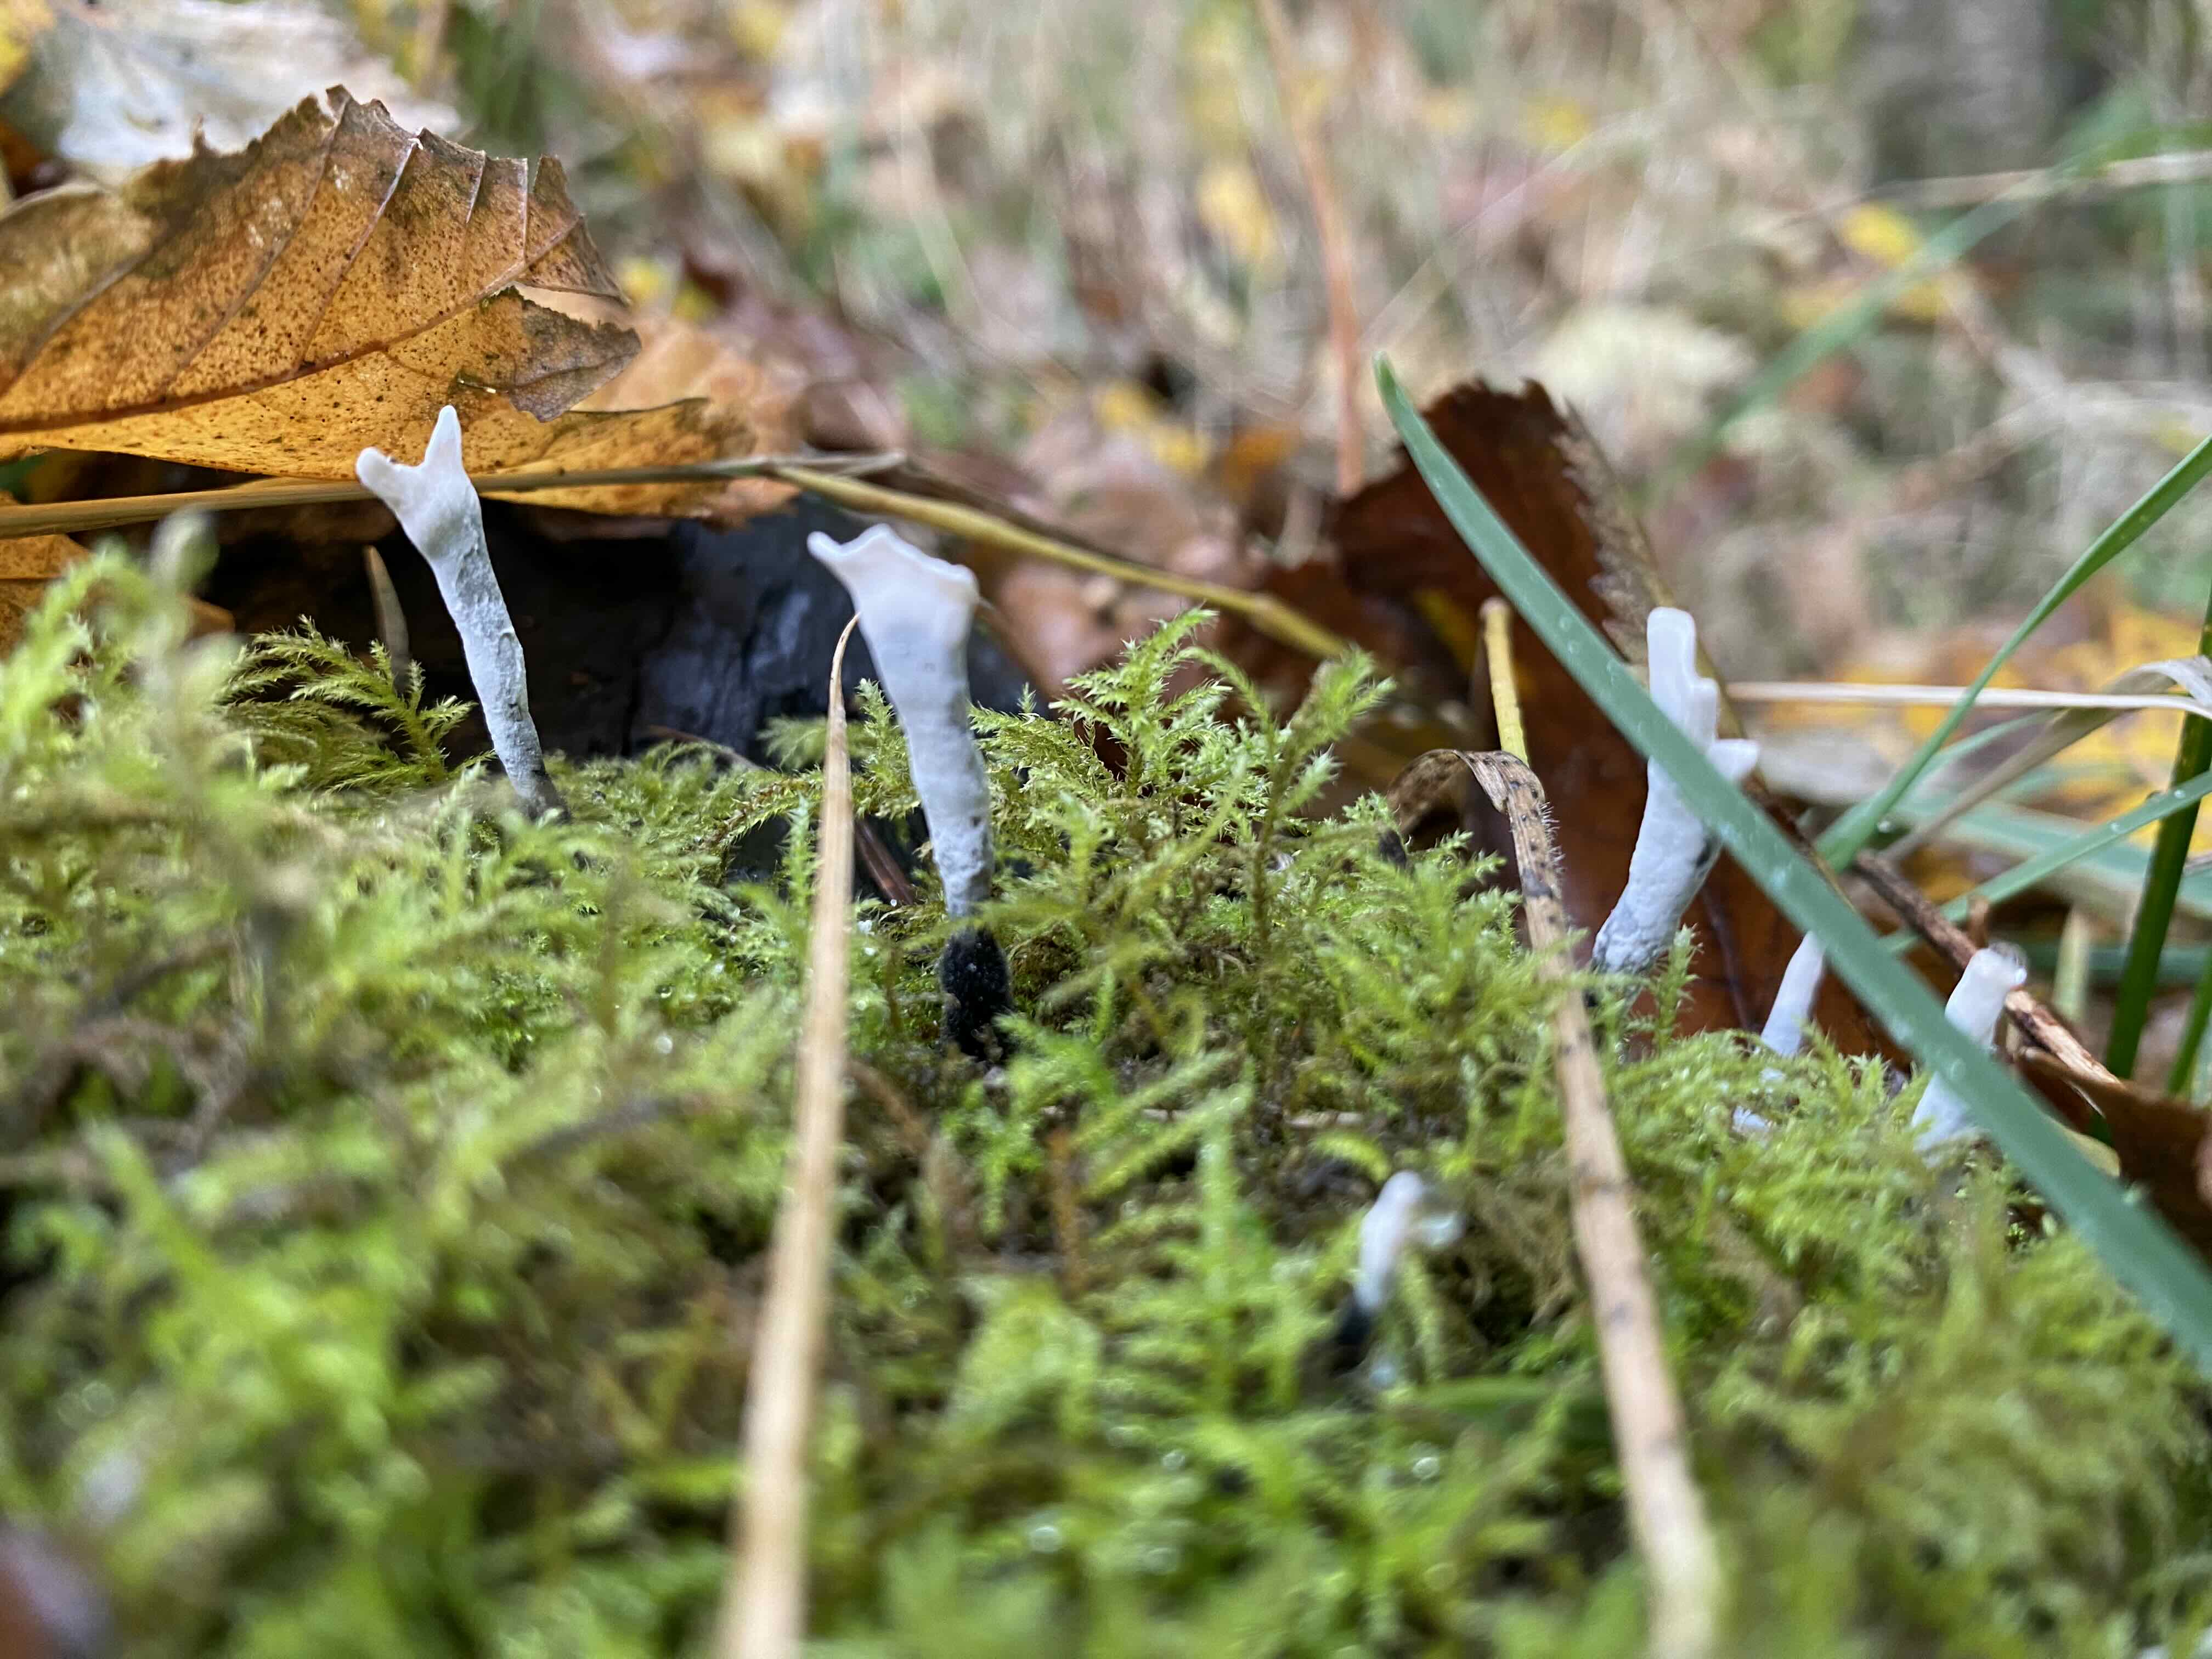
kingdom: Fungi
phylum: Ascomycota
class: Sordariomycetes
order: Xylariales
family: Xylariaceae
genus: Xylaria
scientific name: Xylaria hypoxylon
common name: grenet stødsvamp
